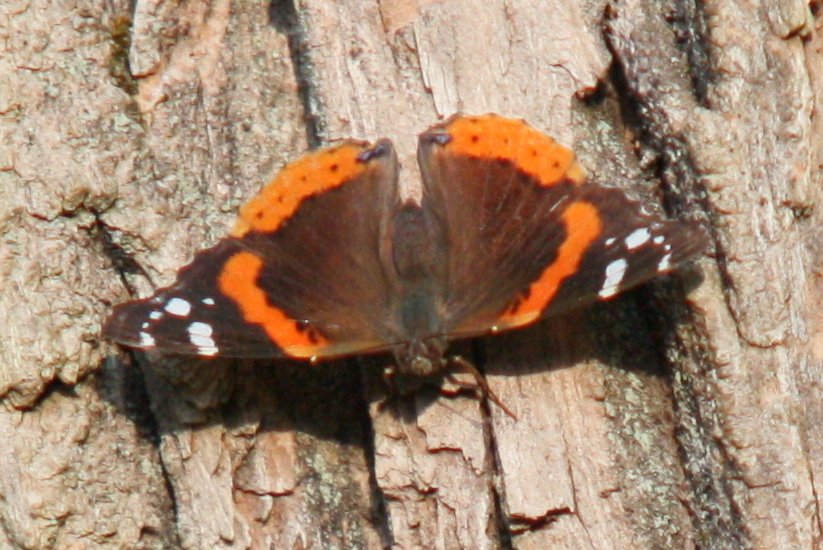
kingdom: Animalia
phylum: Arthropoda
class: Insecta
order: Lepidoptera
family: Nymphalidae
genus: Vanessa
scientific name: Vanessa atalanta
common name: Red Admiral
